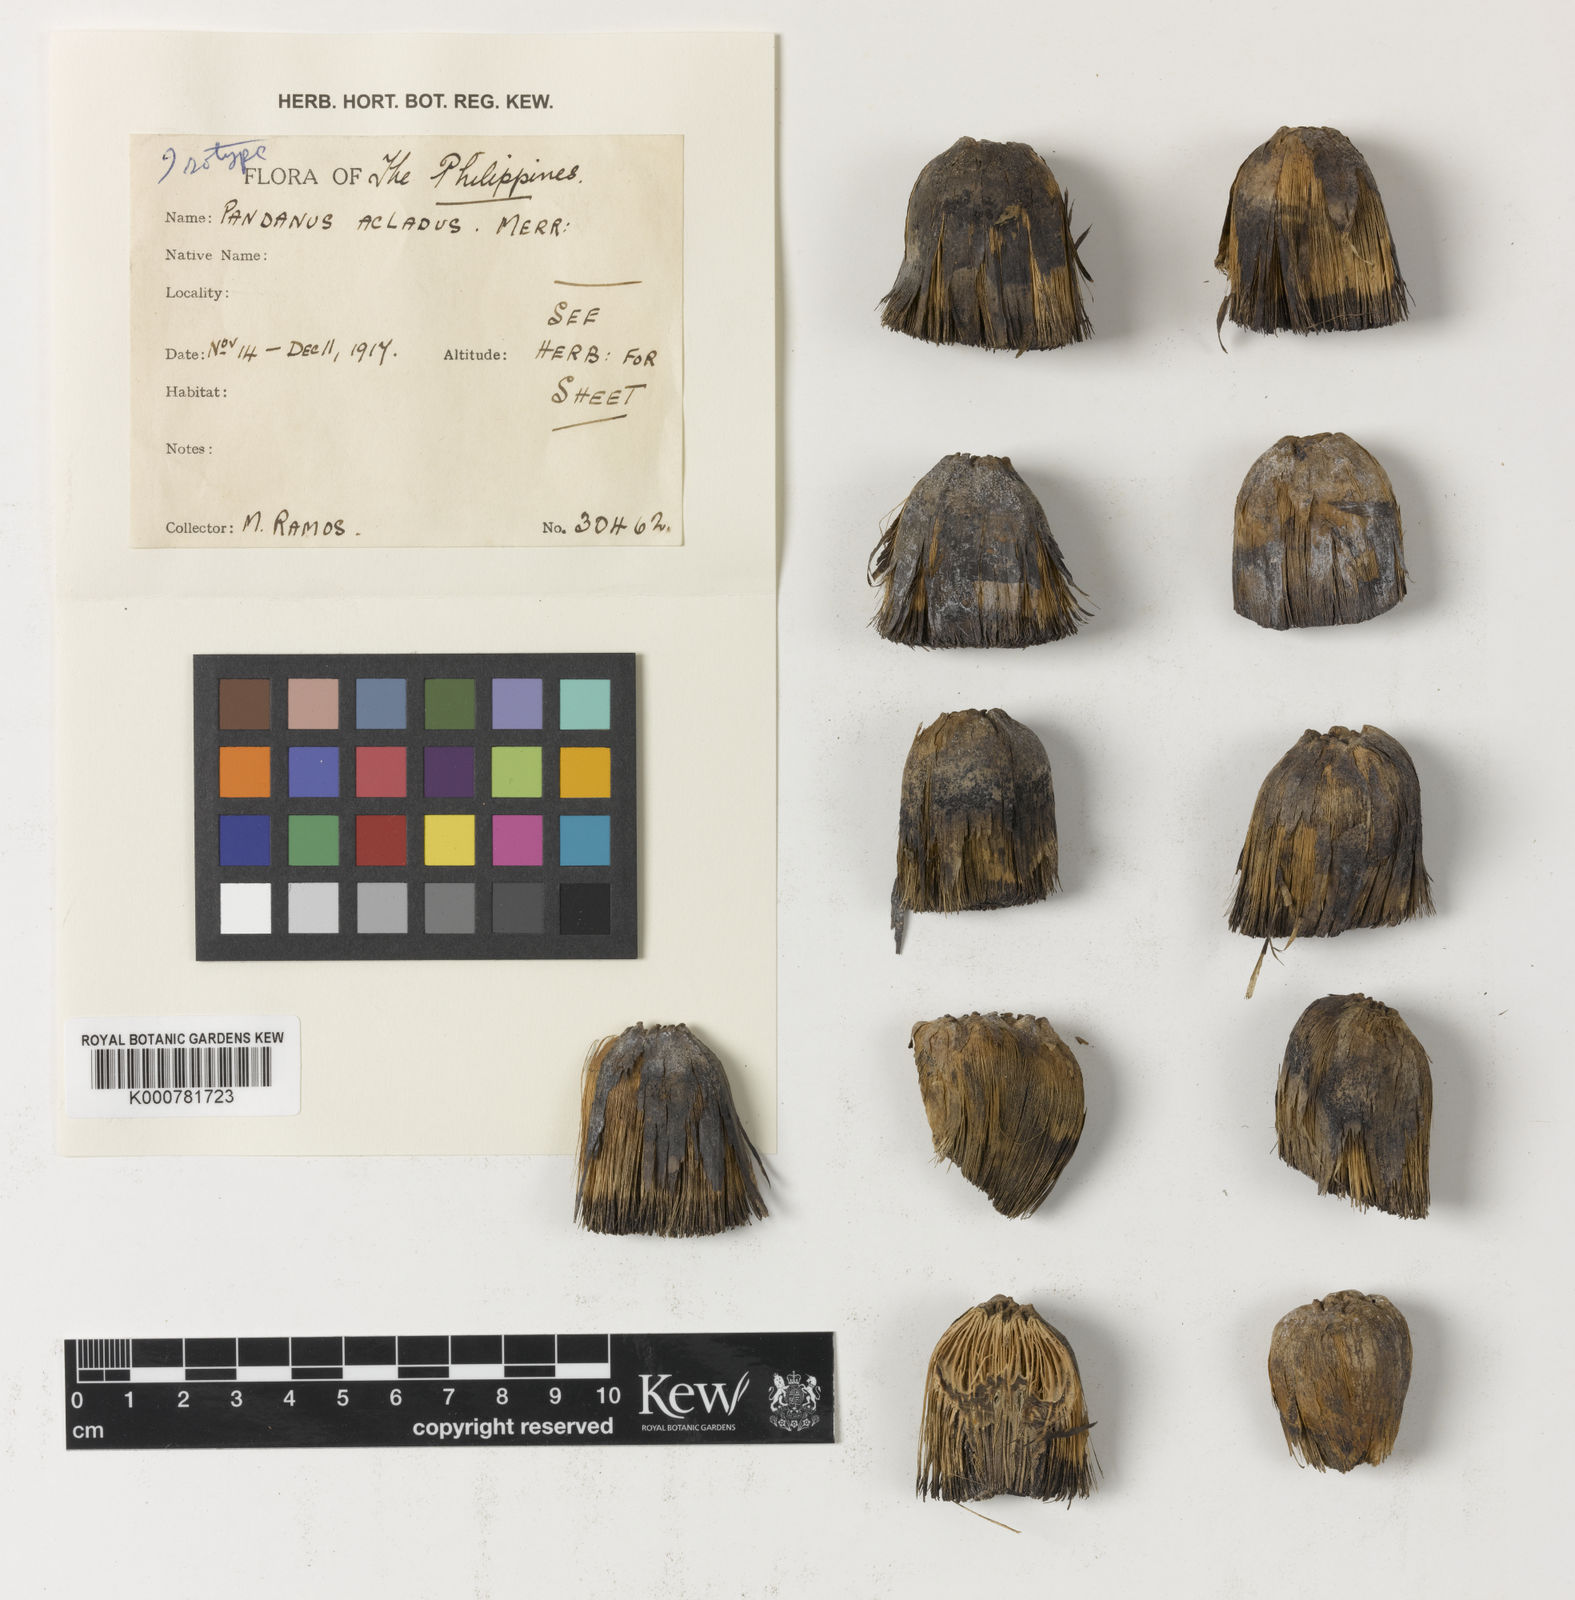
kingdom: Plantae
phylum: Tracheophyta
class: Liliopsida
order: Pandanales
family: Pandanaceae
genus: Pandanus
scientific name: Pandanus acladus
